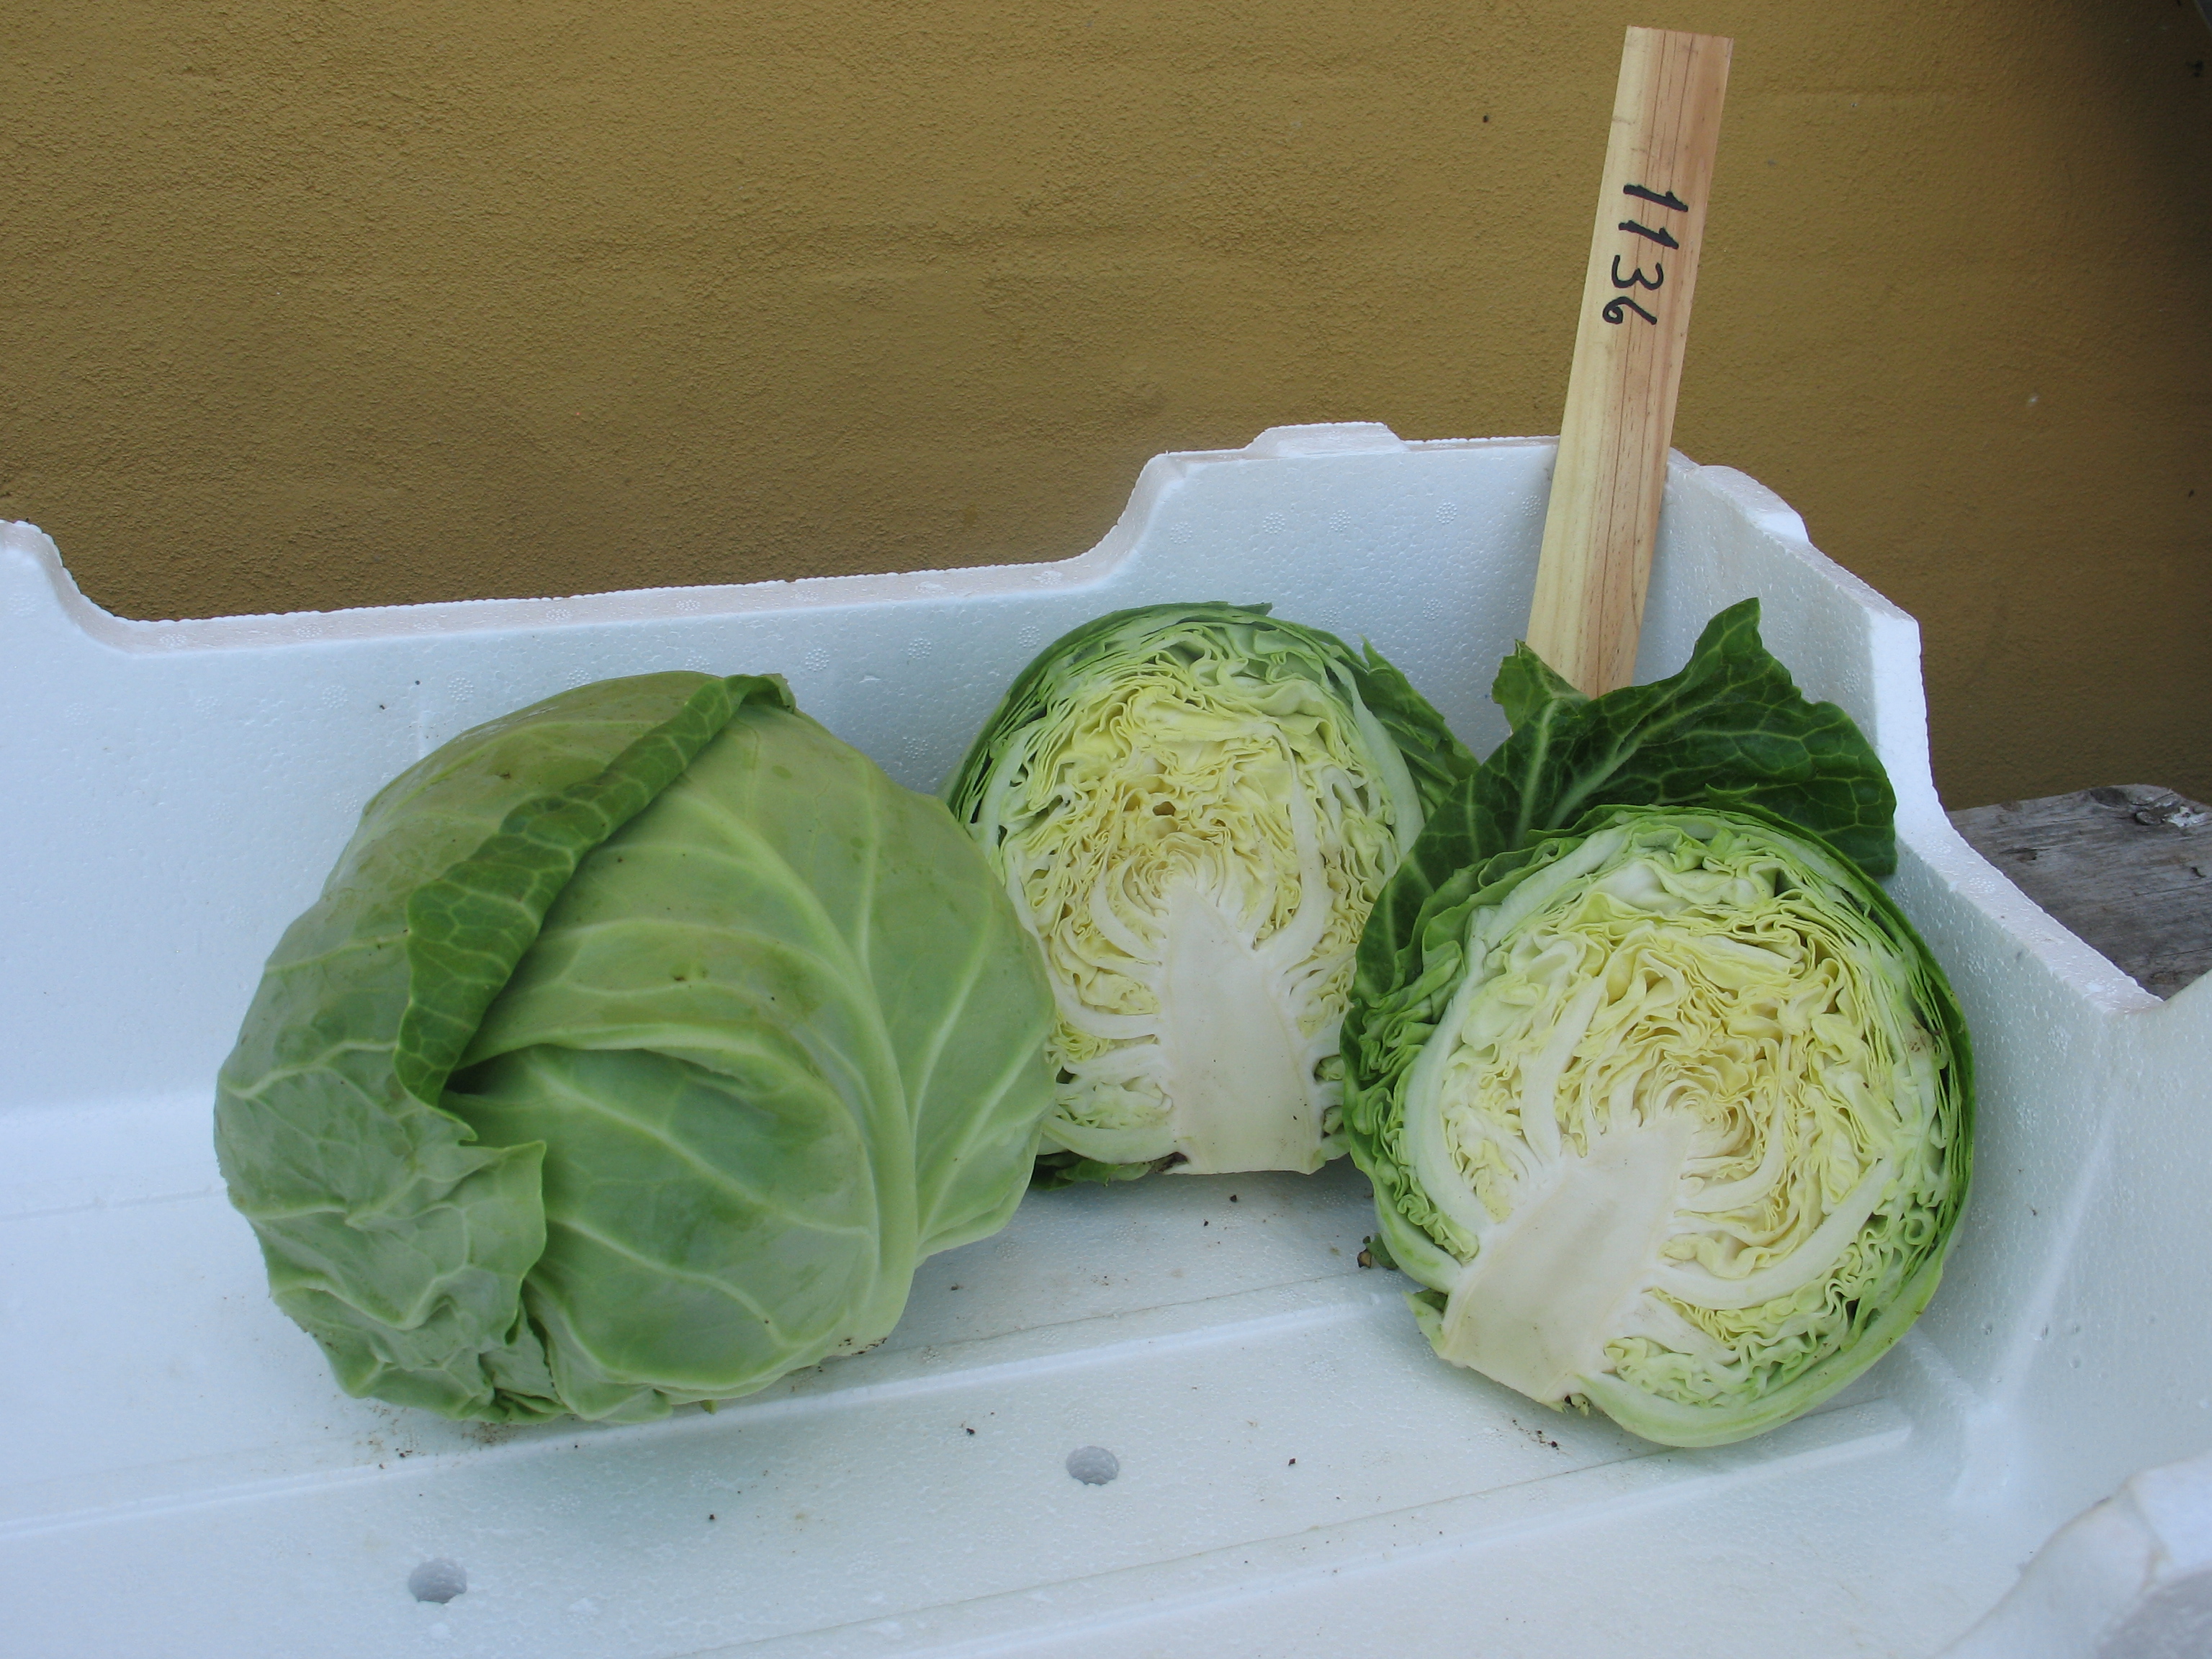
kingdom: Plantae
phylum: Tracheophyta
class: Magnoliopsida
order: Brassicales
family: Brassicaceae
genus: Brassica
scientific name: Brassica oleracea
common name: Cabbage
